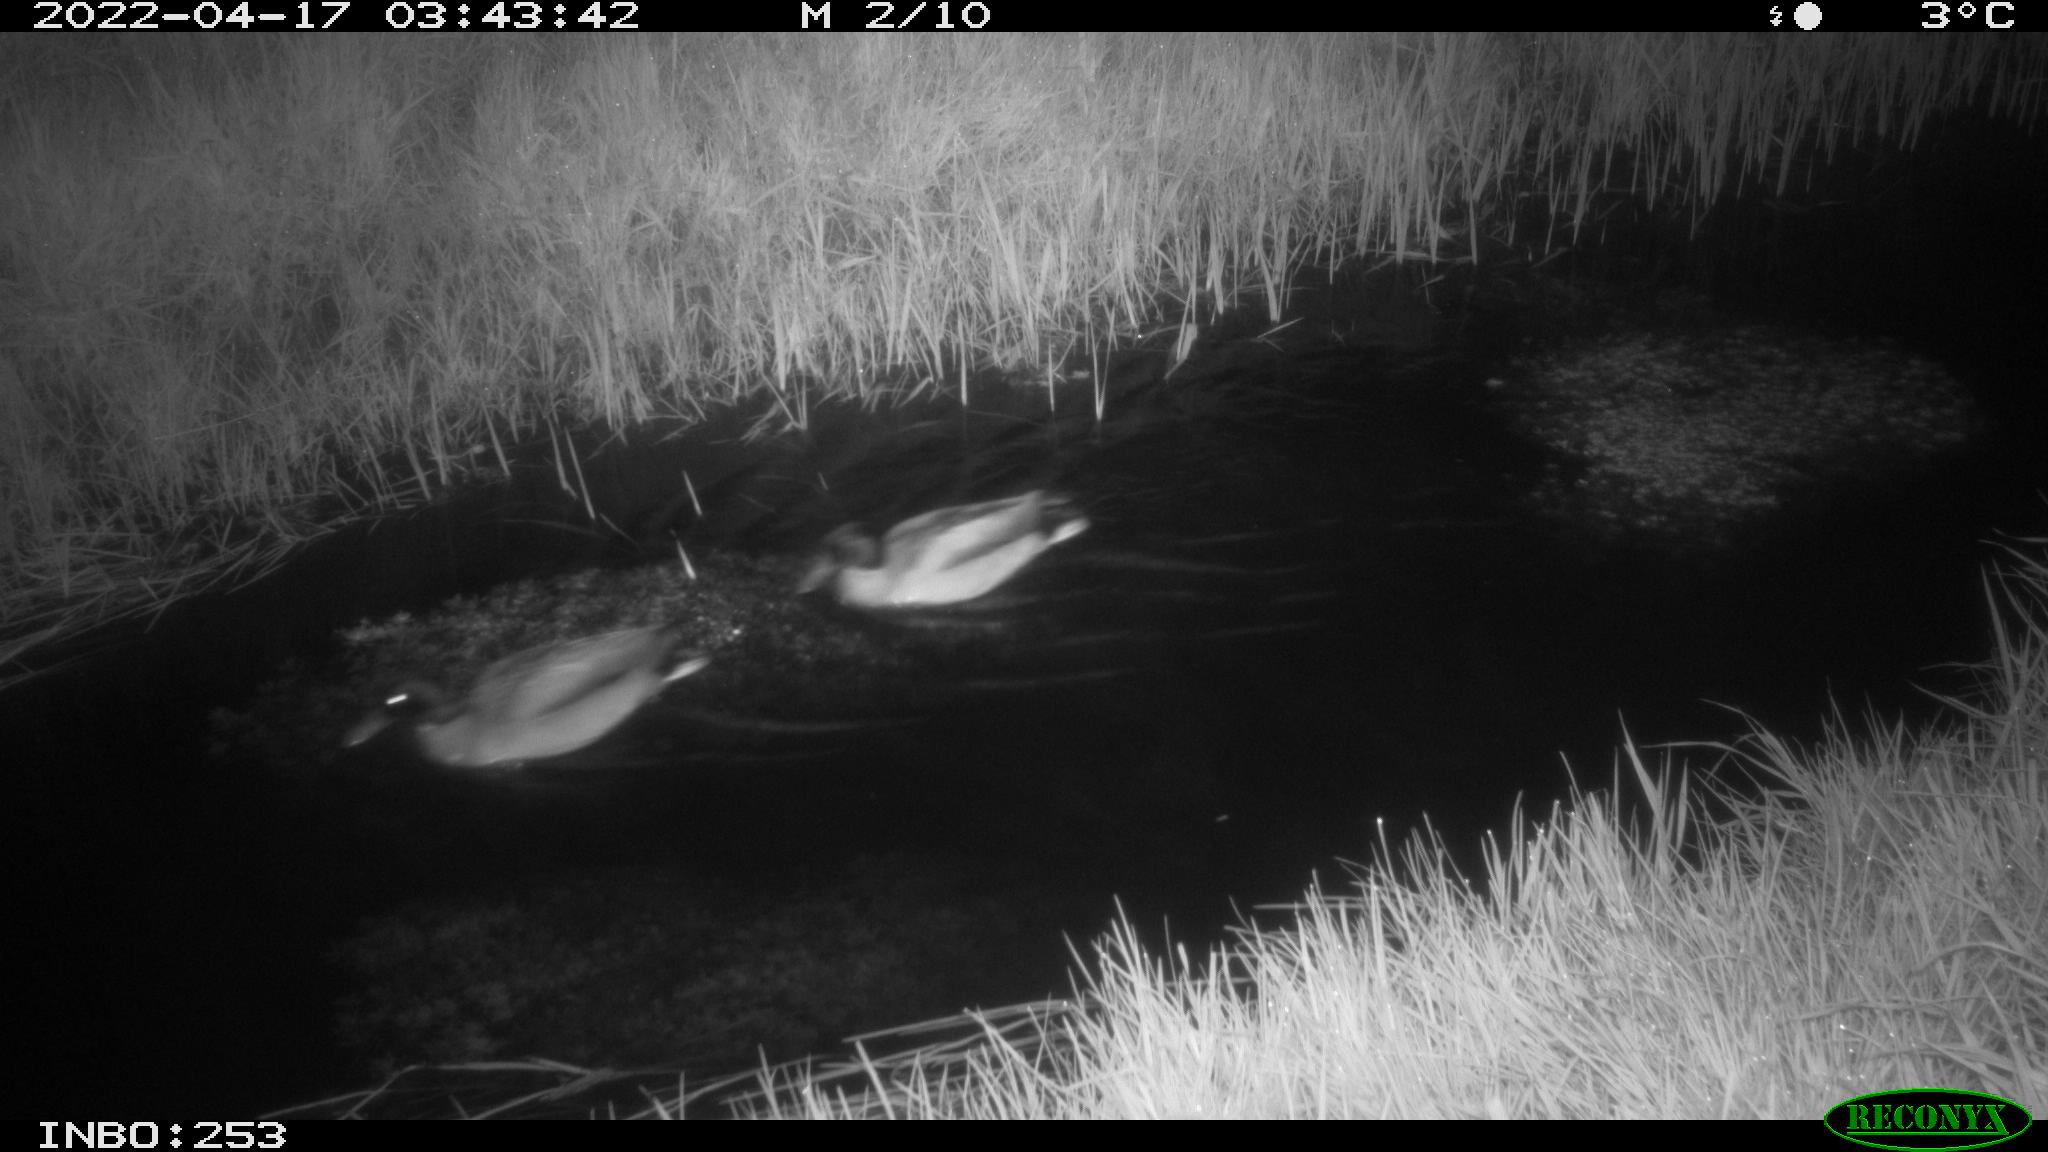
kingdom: Animalia
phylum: Chordata
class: Aves
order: Anseriformes
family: Anatidae
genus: Anas
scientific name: Anas platyrhynchos
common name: Mallard
